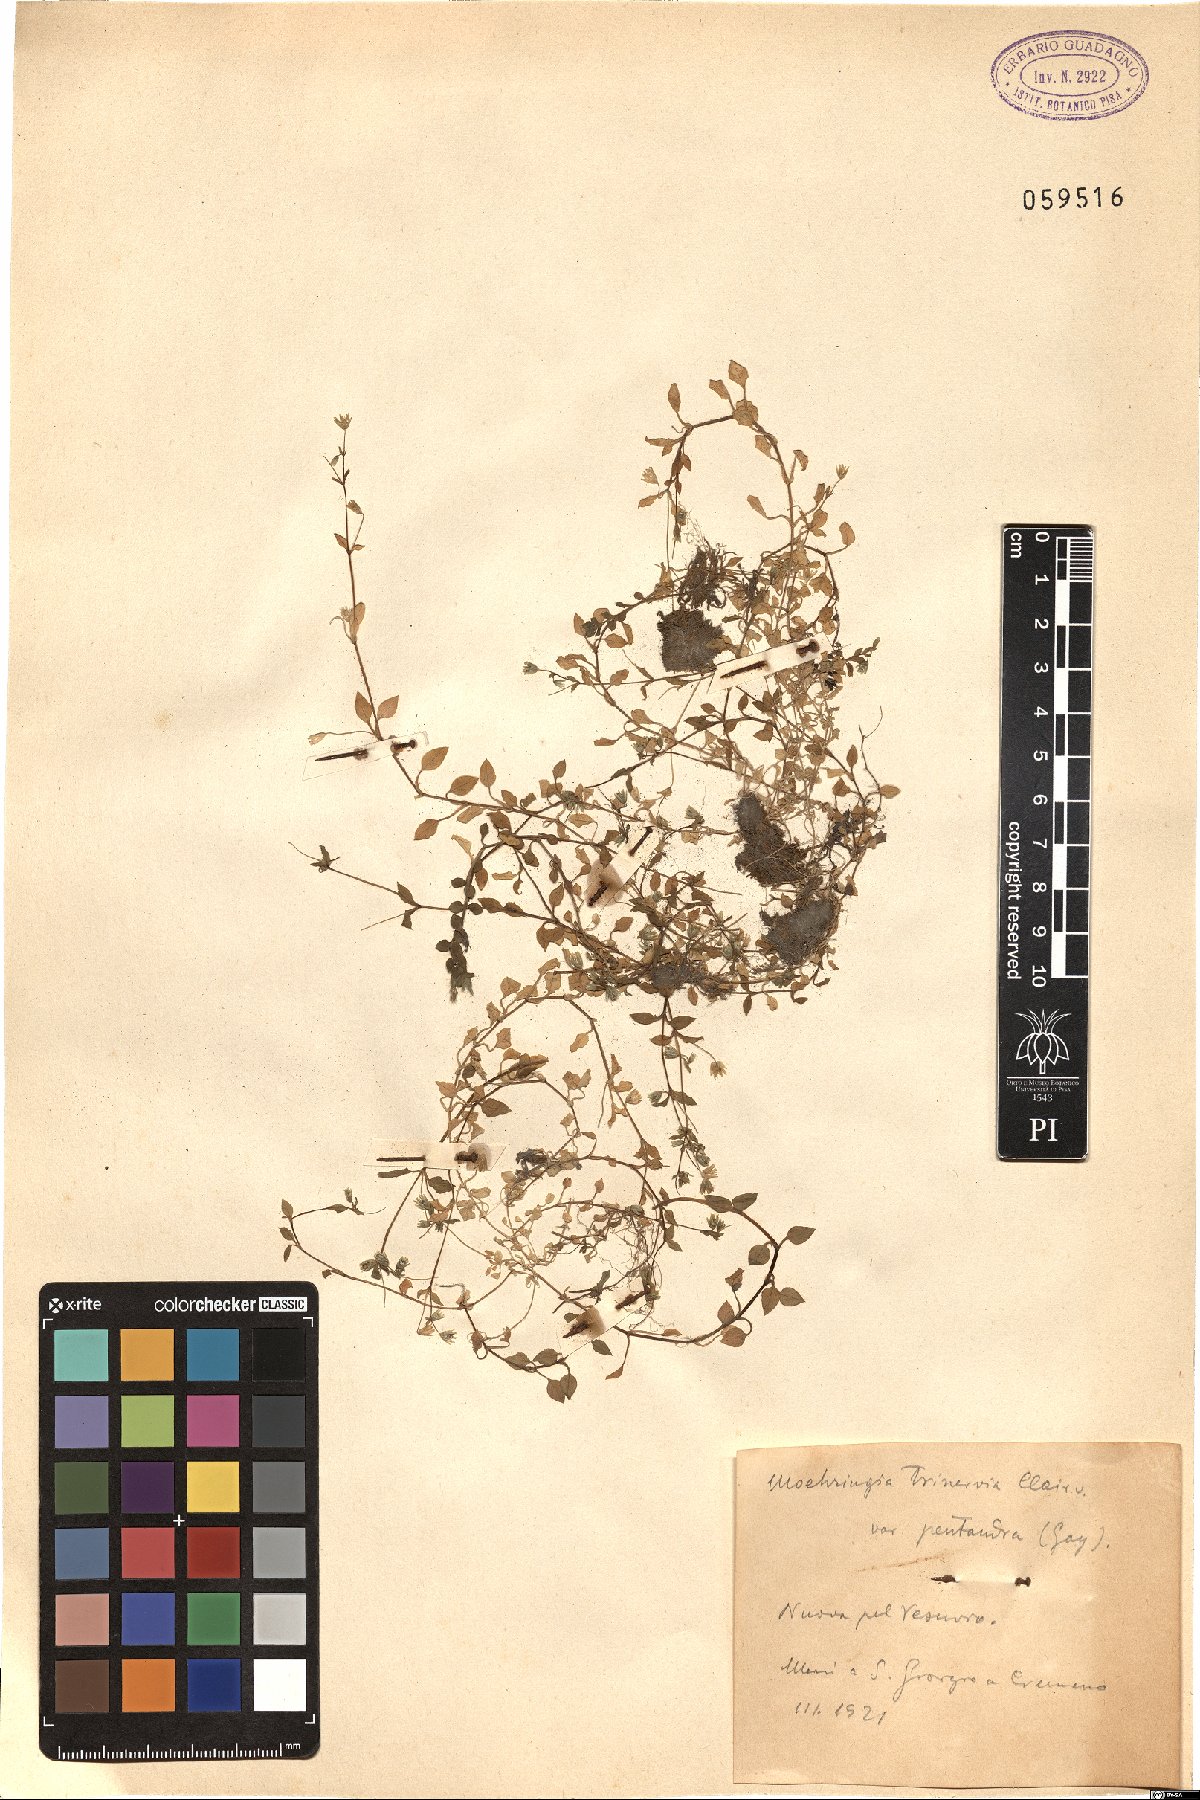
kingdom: Plantae
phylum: Tracheophyta
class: Magnoliopsida
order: Caryophyllales
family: Caryophyllaceae
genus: Moehringia
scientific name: Moehringia pentandra
